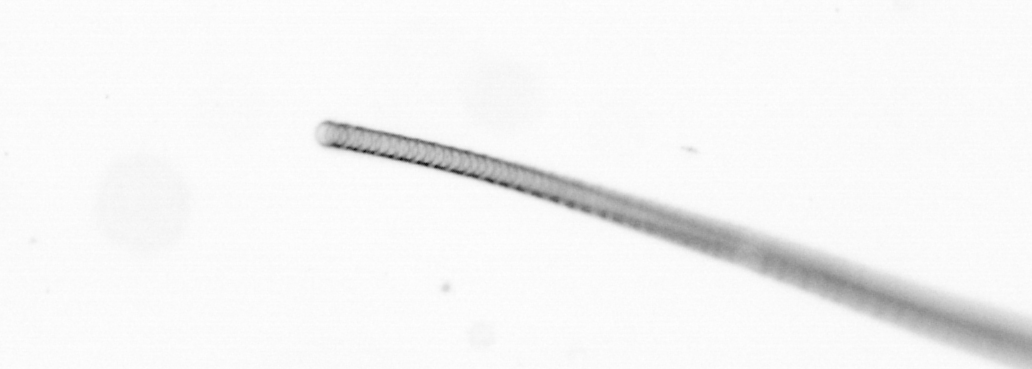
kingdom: Chromista
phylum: Ochrophyta
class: Bacillariophyceae
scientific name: Bacillariophyceae
